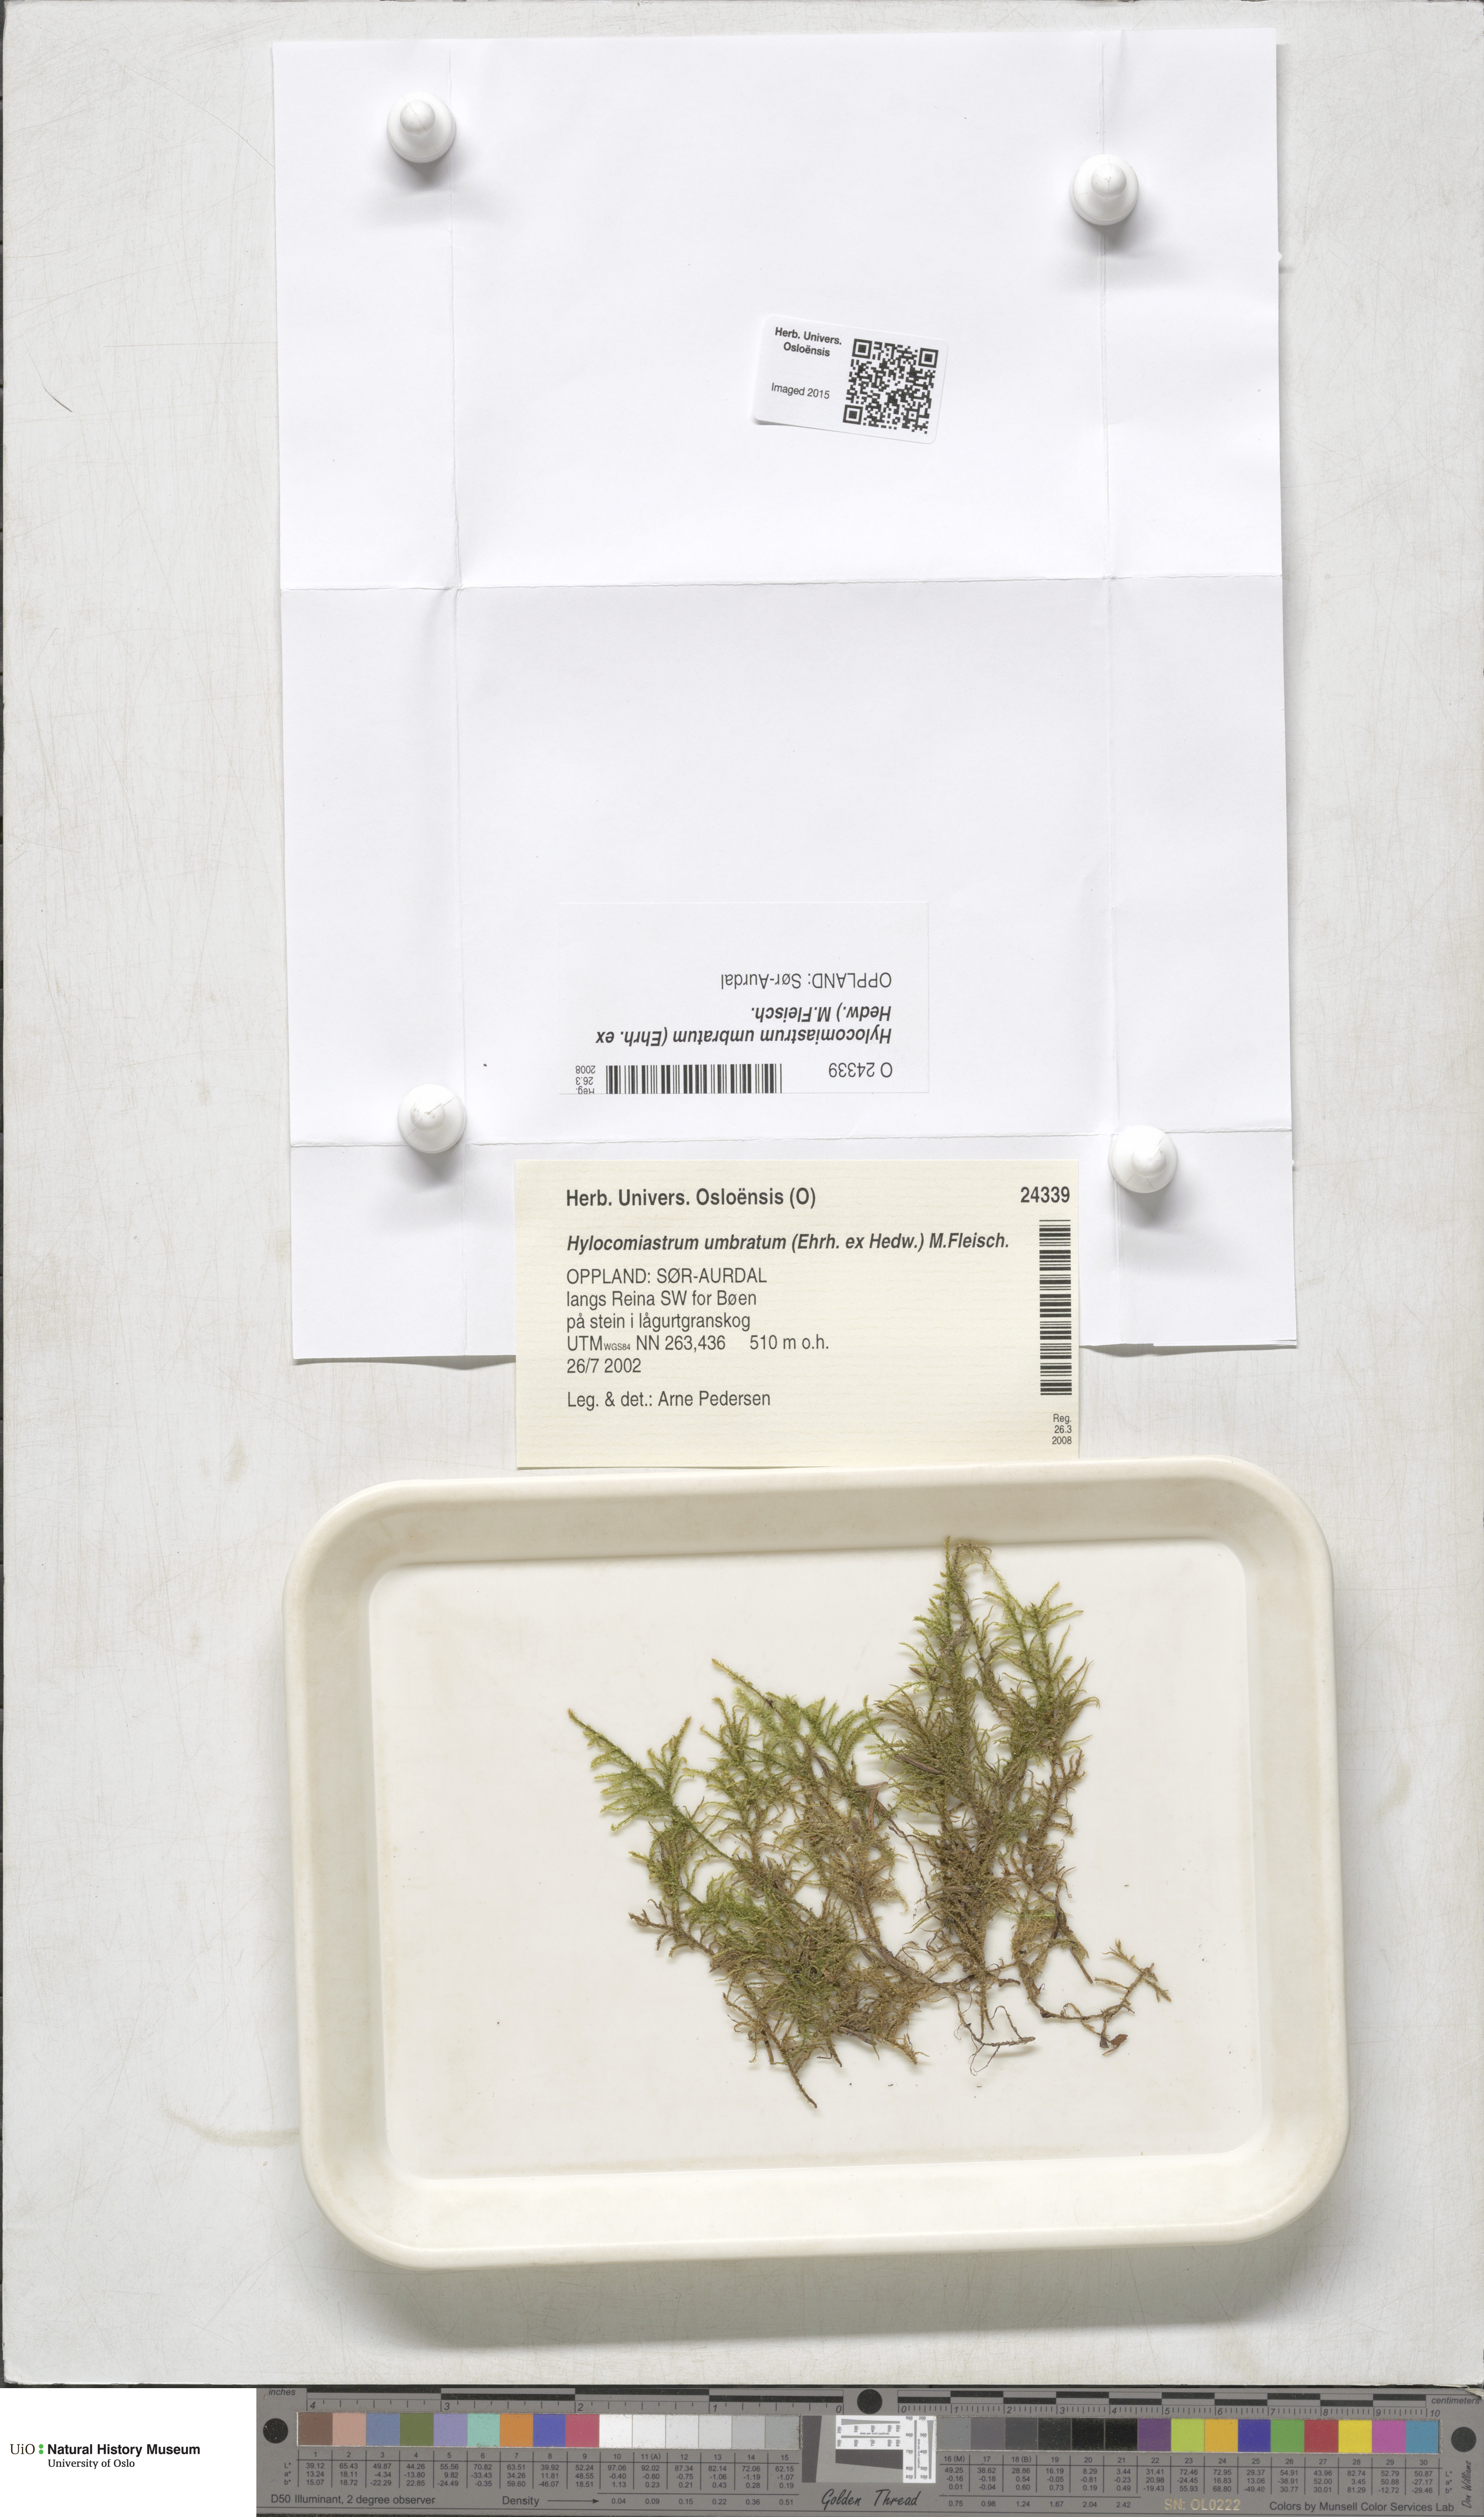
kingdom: Plantae
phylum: Bryophyta
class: Bryopsida
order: Hypnales
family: Hylocomiaceae
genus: Hylocomiastrum
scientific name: Hylocomiastrum umbratum
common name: Shaded woods moss
